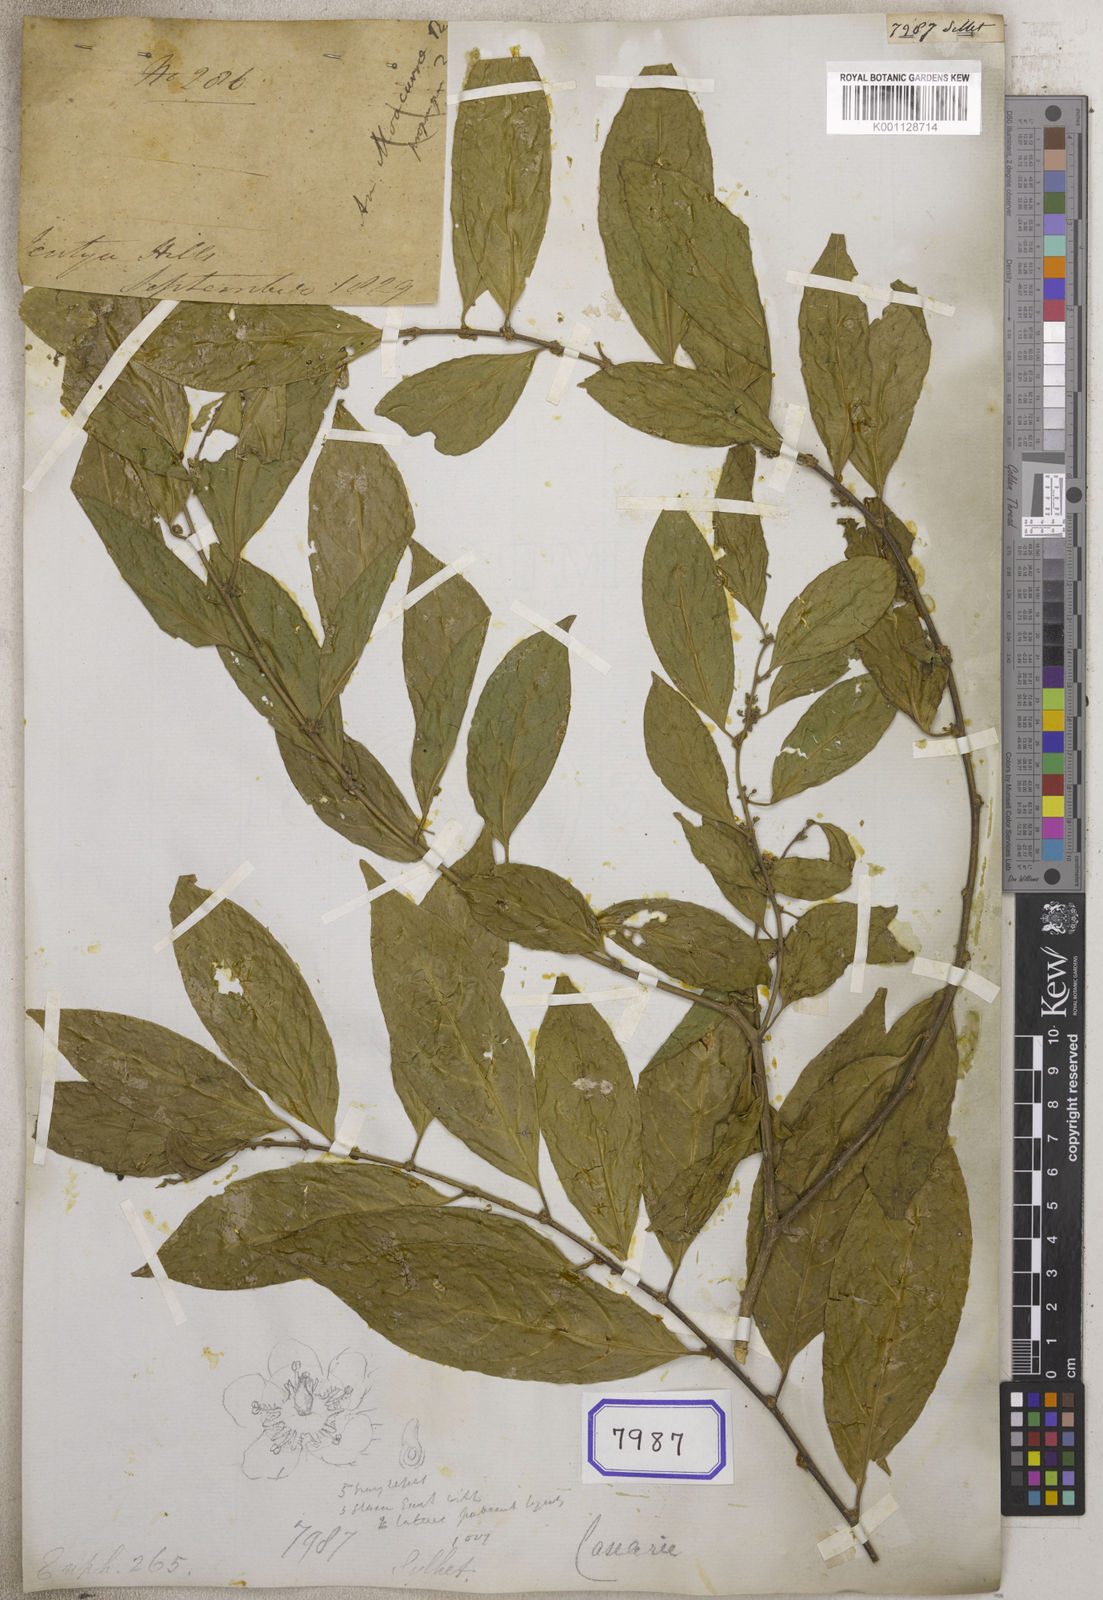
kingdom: Plantae
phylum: Tracheophyta
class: Magnoliopsida
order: Malpighiales
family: Euphorbiaceae
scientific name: Euphorbiaceae
